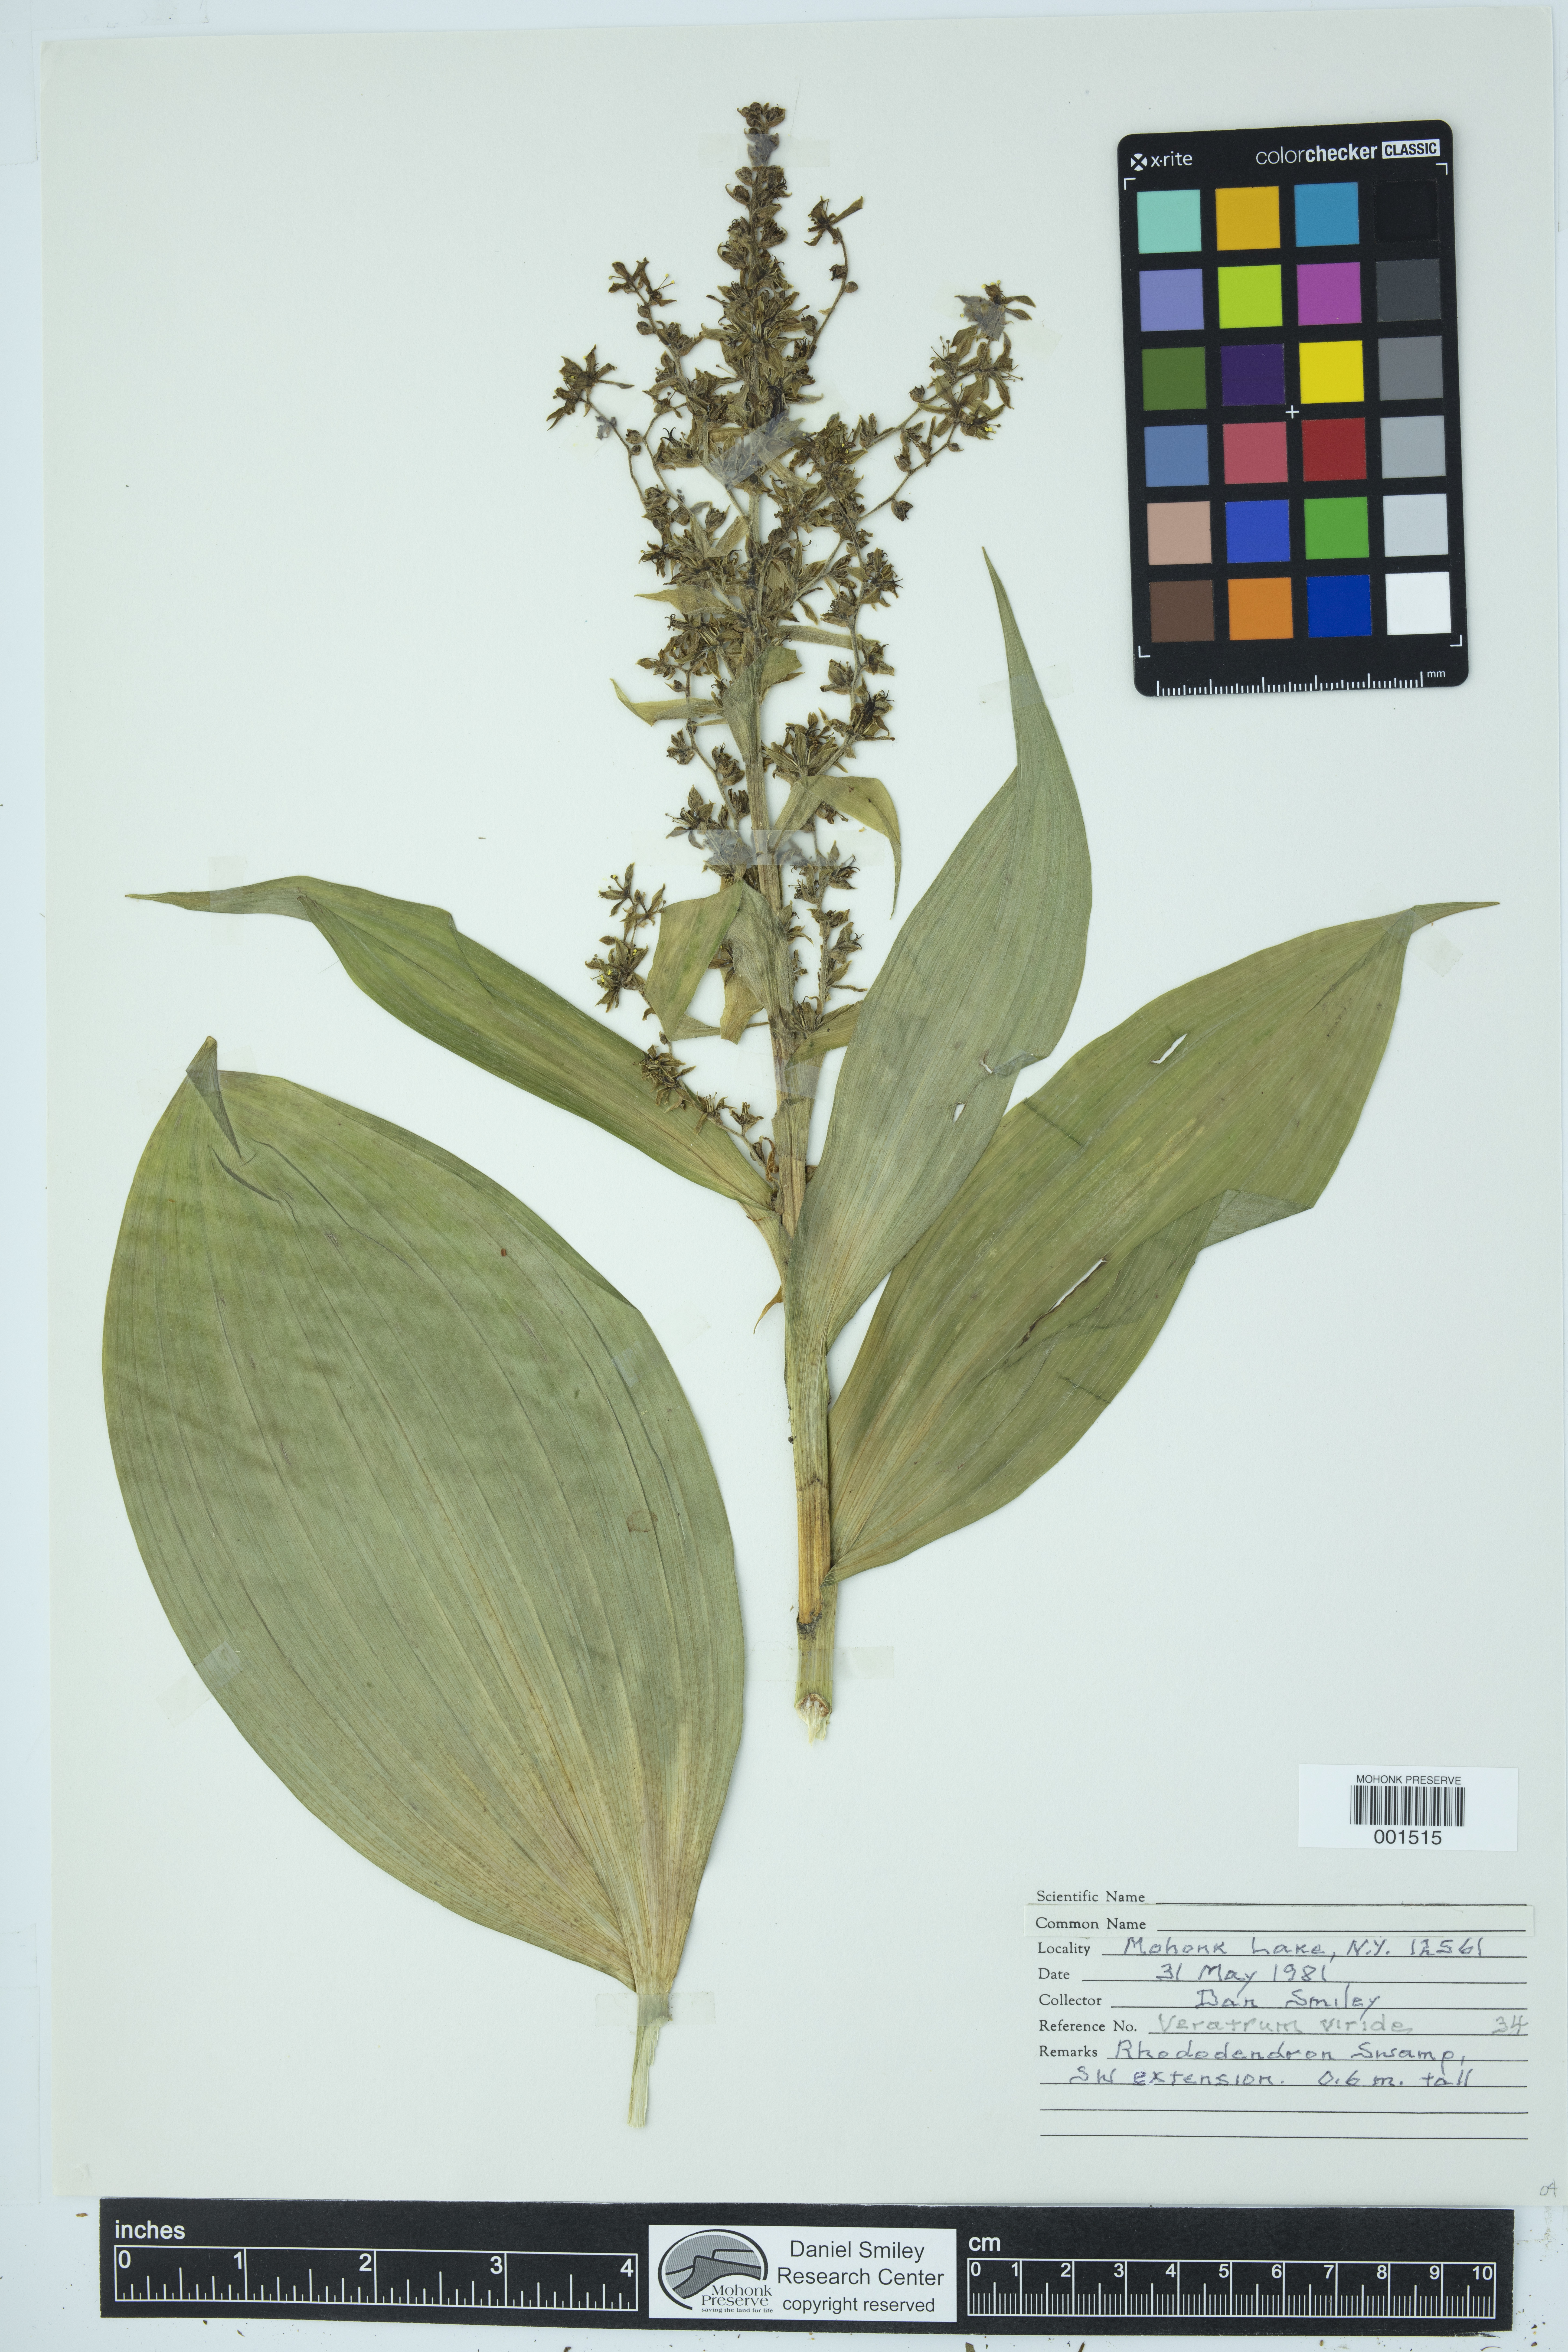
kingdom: Plantae
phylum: Tracheophyta
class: Liliopsida
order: Liliales
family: Melanthiaceae
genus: Veratrum
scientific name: Veratrum viride
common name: American false hellebore
